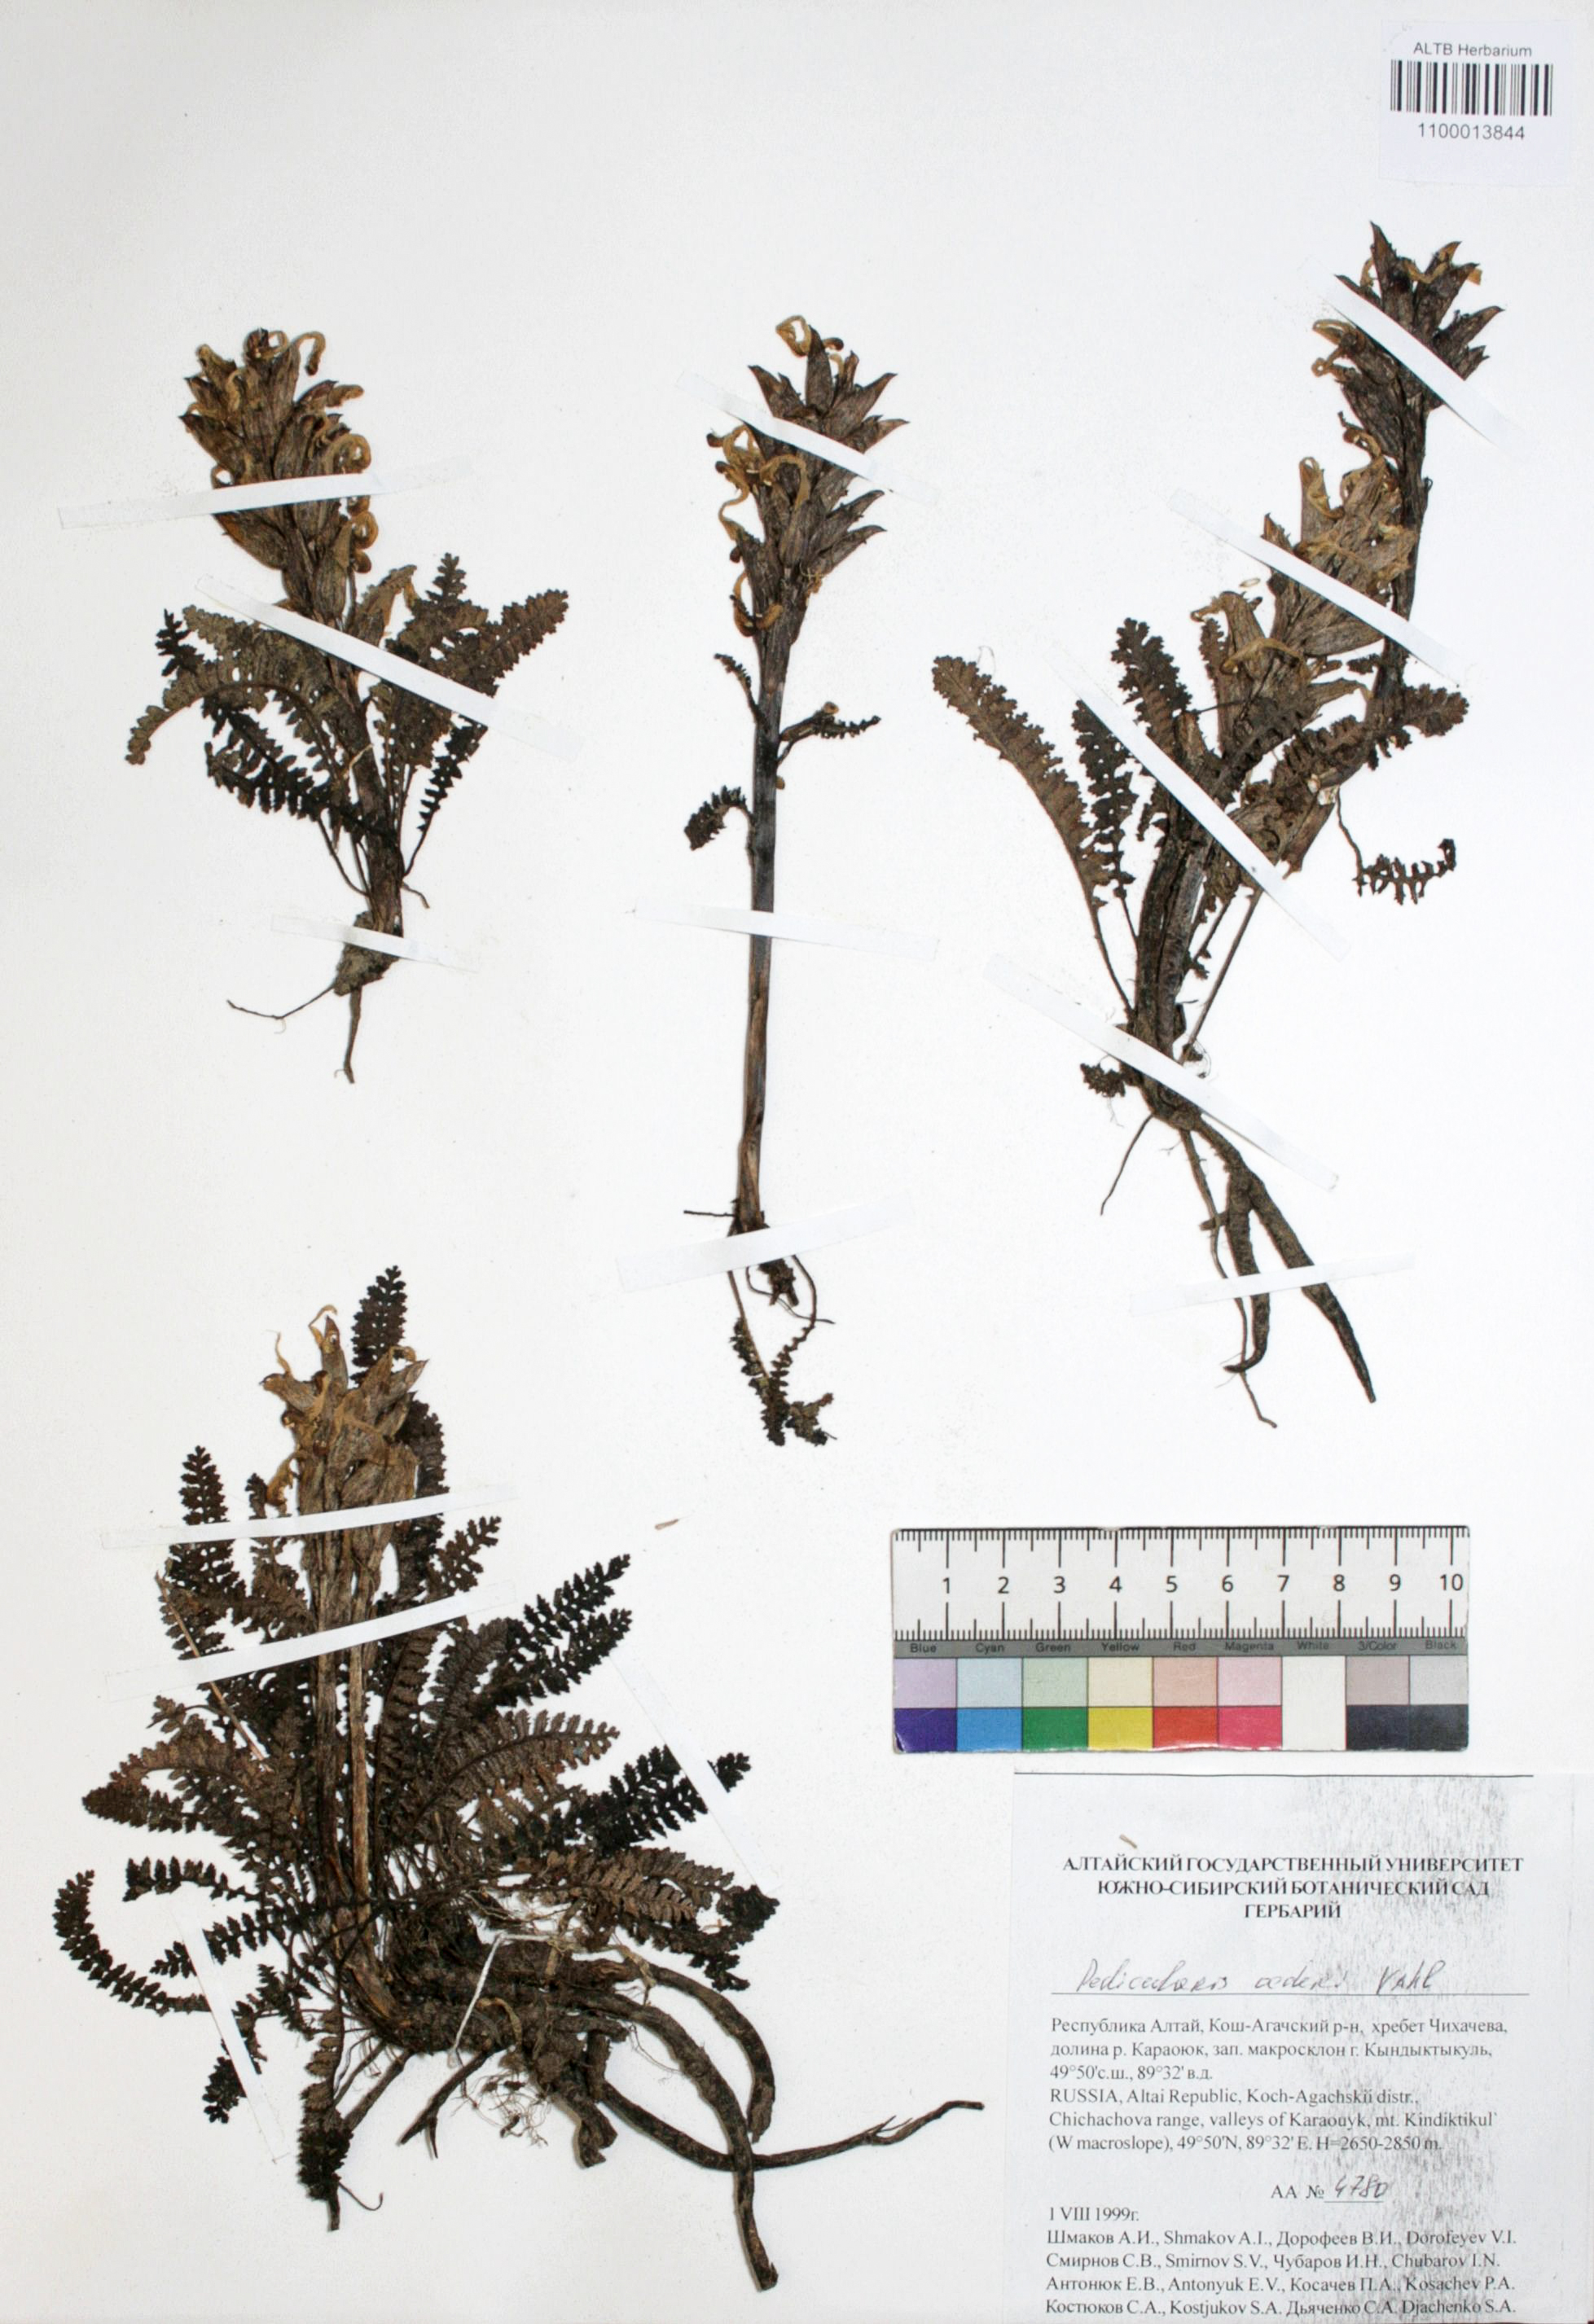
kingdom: Plantae
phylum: Tracheophyta
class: Magnoliopsida
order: Caryophyllales
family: Caryophyllaceae
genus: Silene
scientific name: Silene graminifolia
